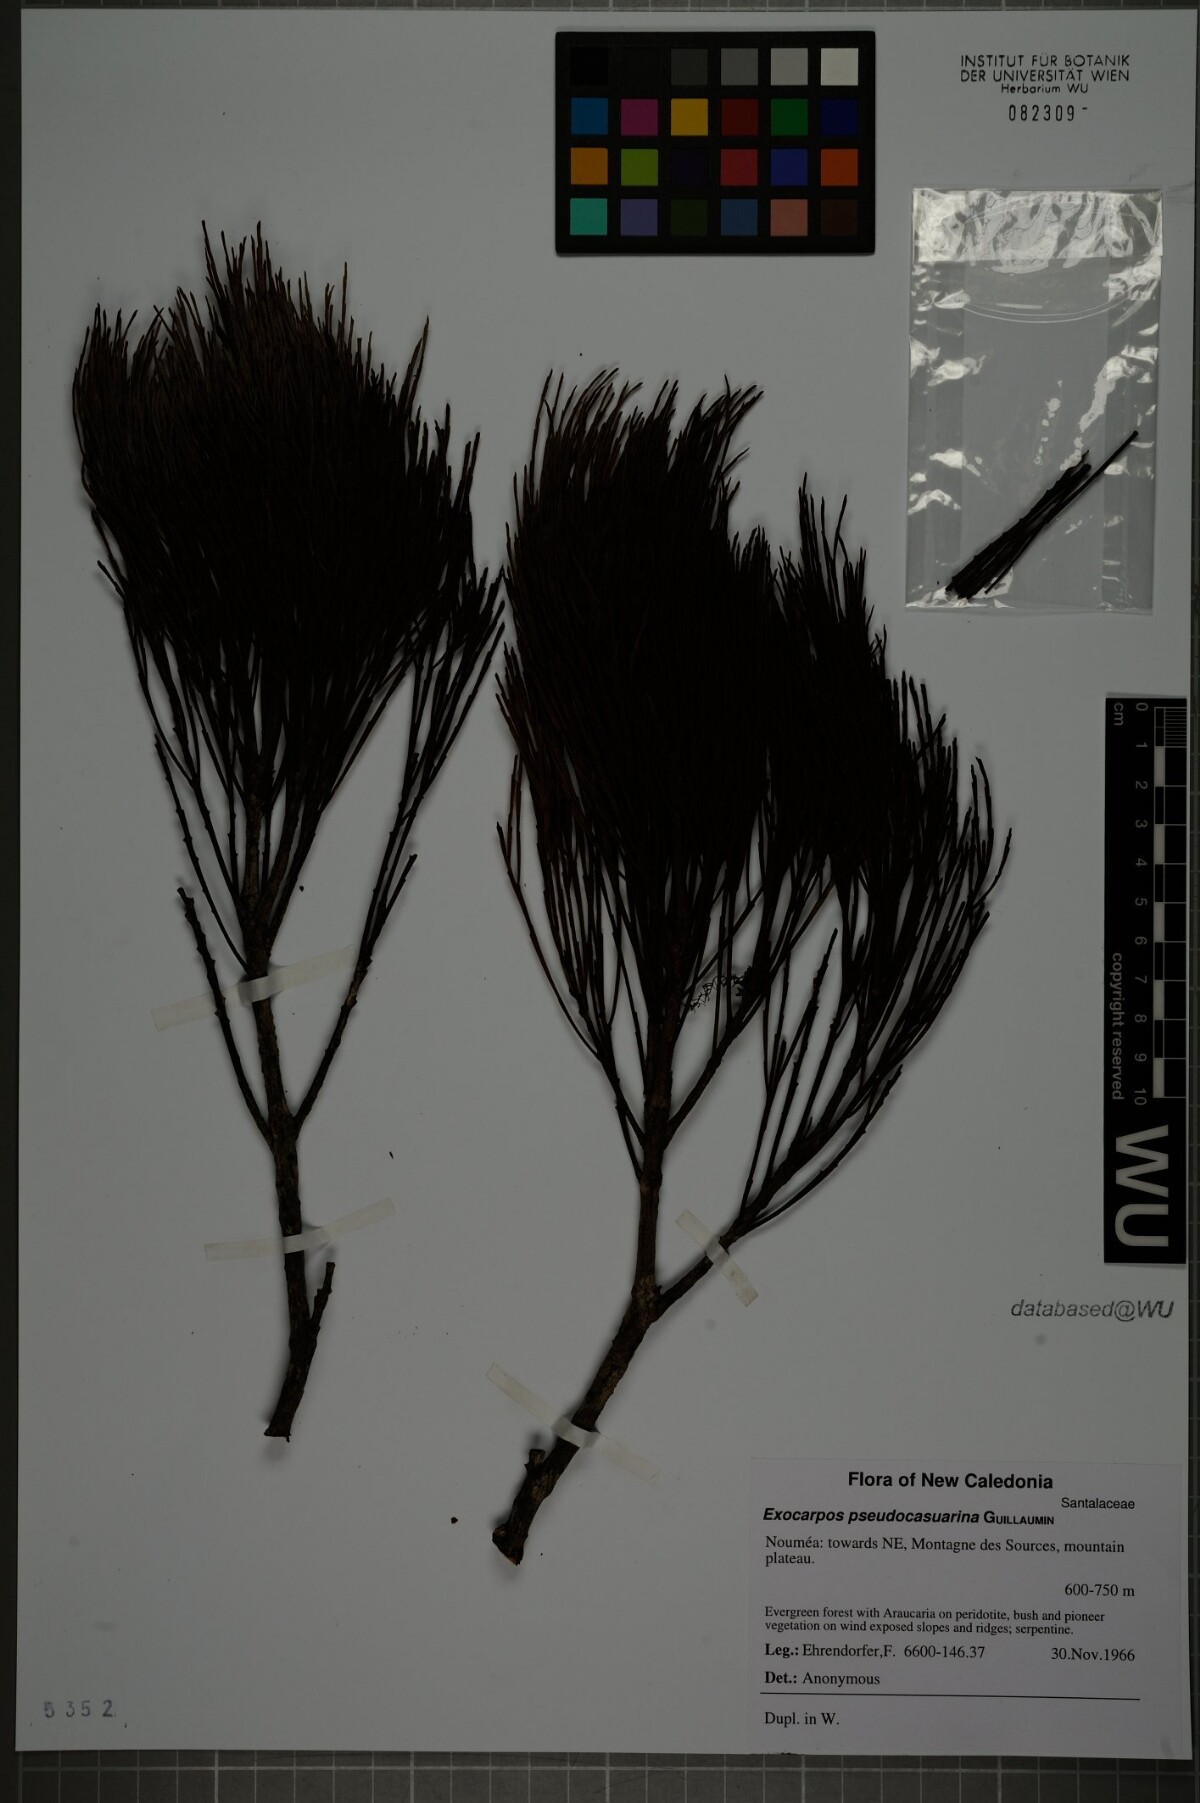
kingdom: Plantae
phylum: Tracheophyta
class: Magnoliopsida
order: Santalales
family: Santalaceae
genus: Exocarpos
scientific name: Exocarpos pseudocasuarina
